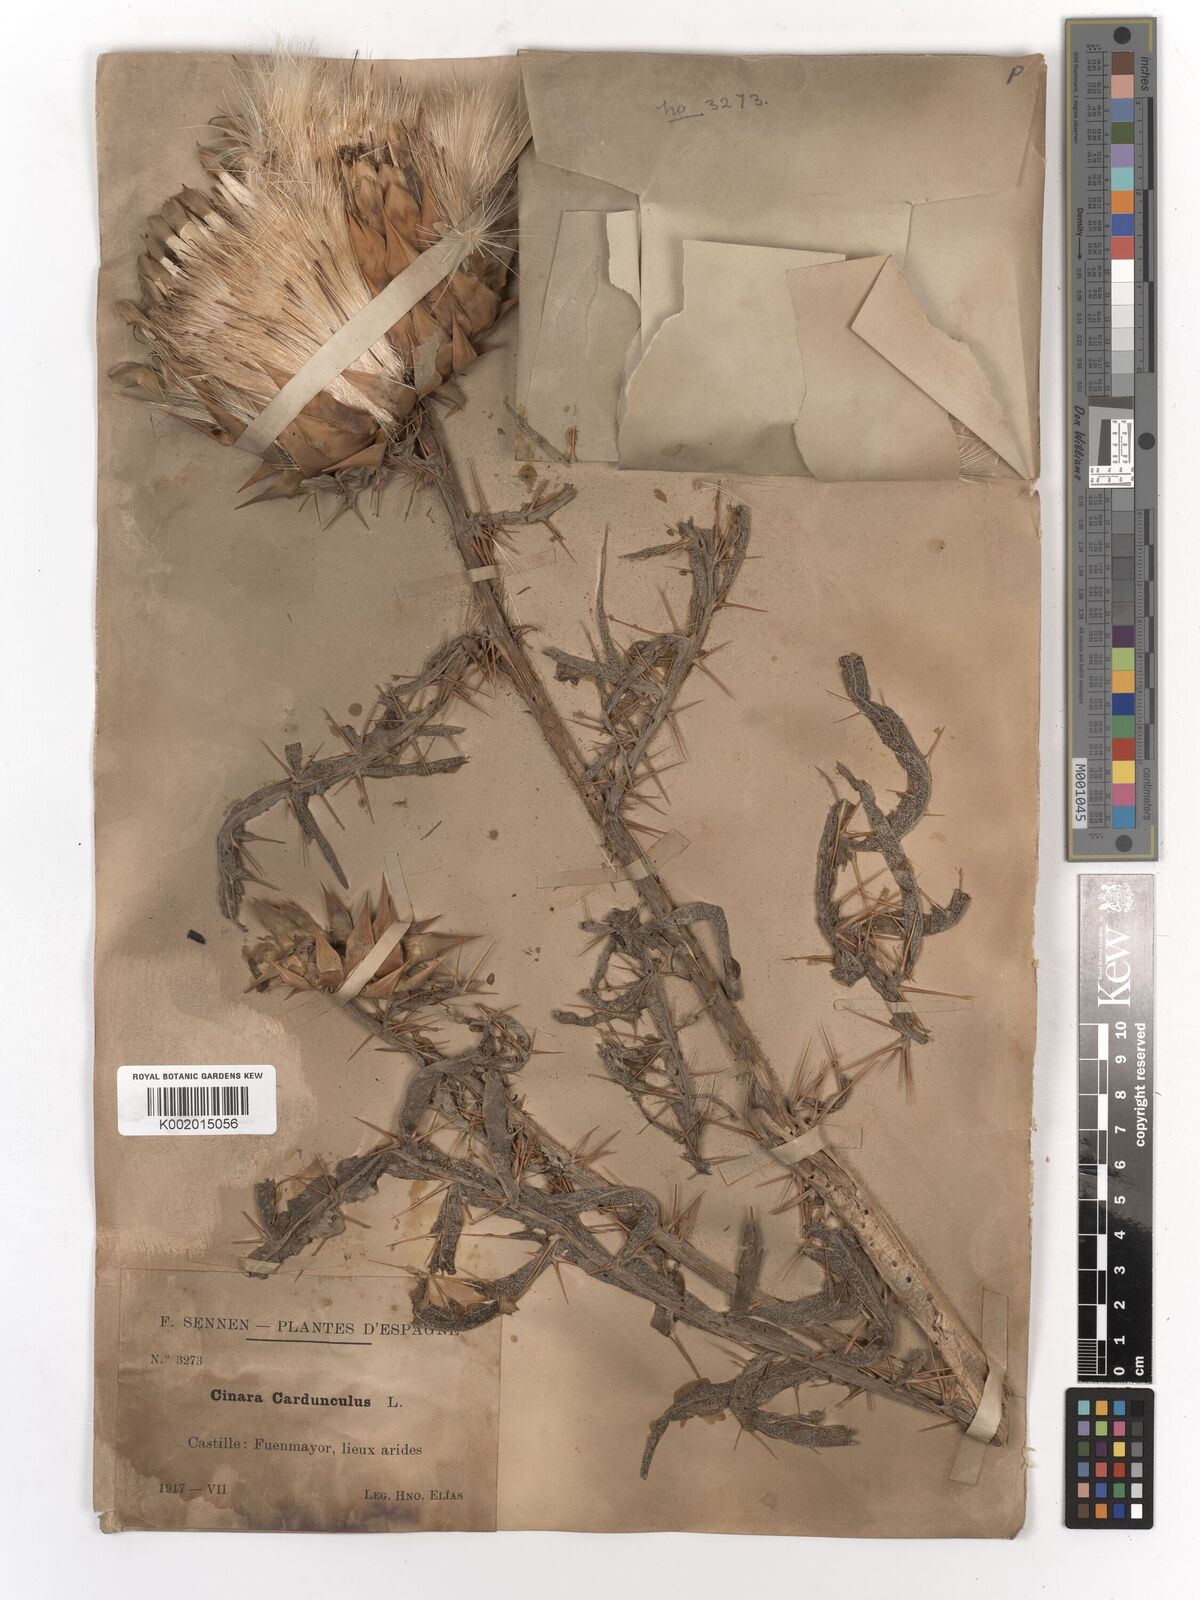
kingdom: Plantae
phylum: Tracheophyta
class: Magnoliopsida
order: Asterales
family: Asteraceae
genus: Cynara
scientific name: Cynara cardunculus
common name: Globe artichoke
